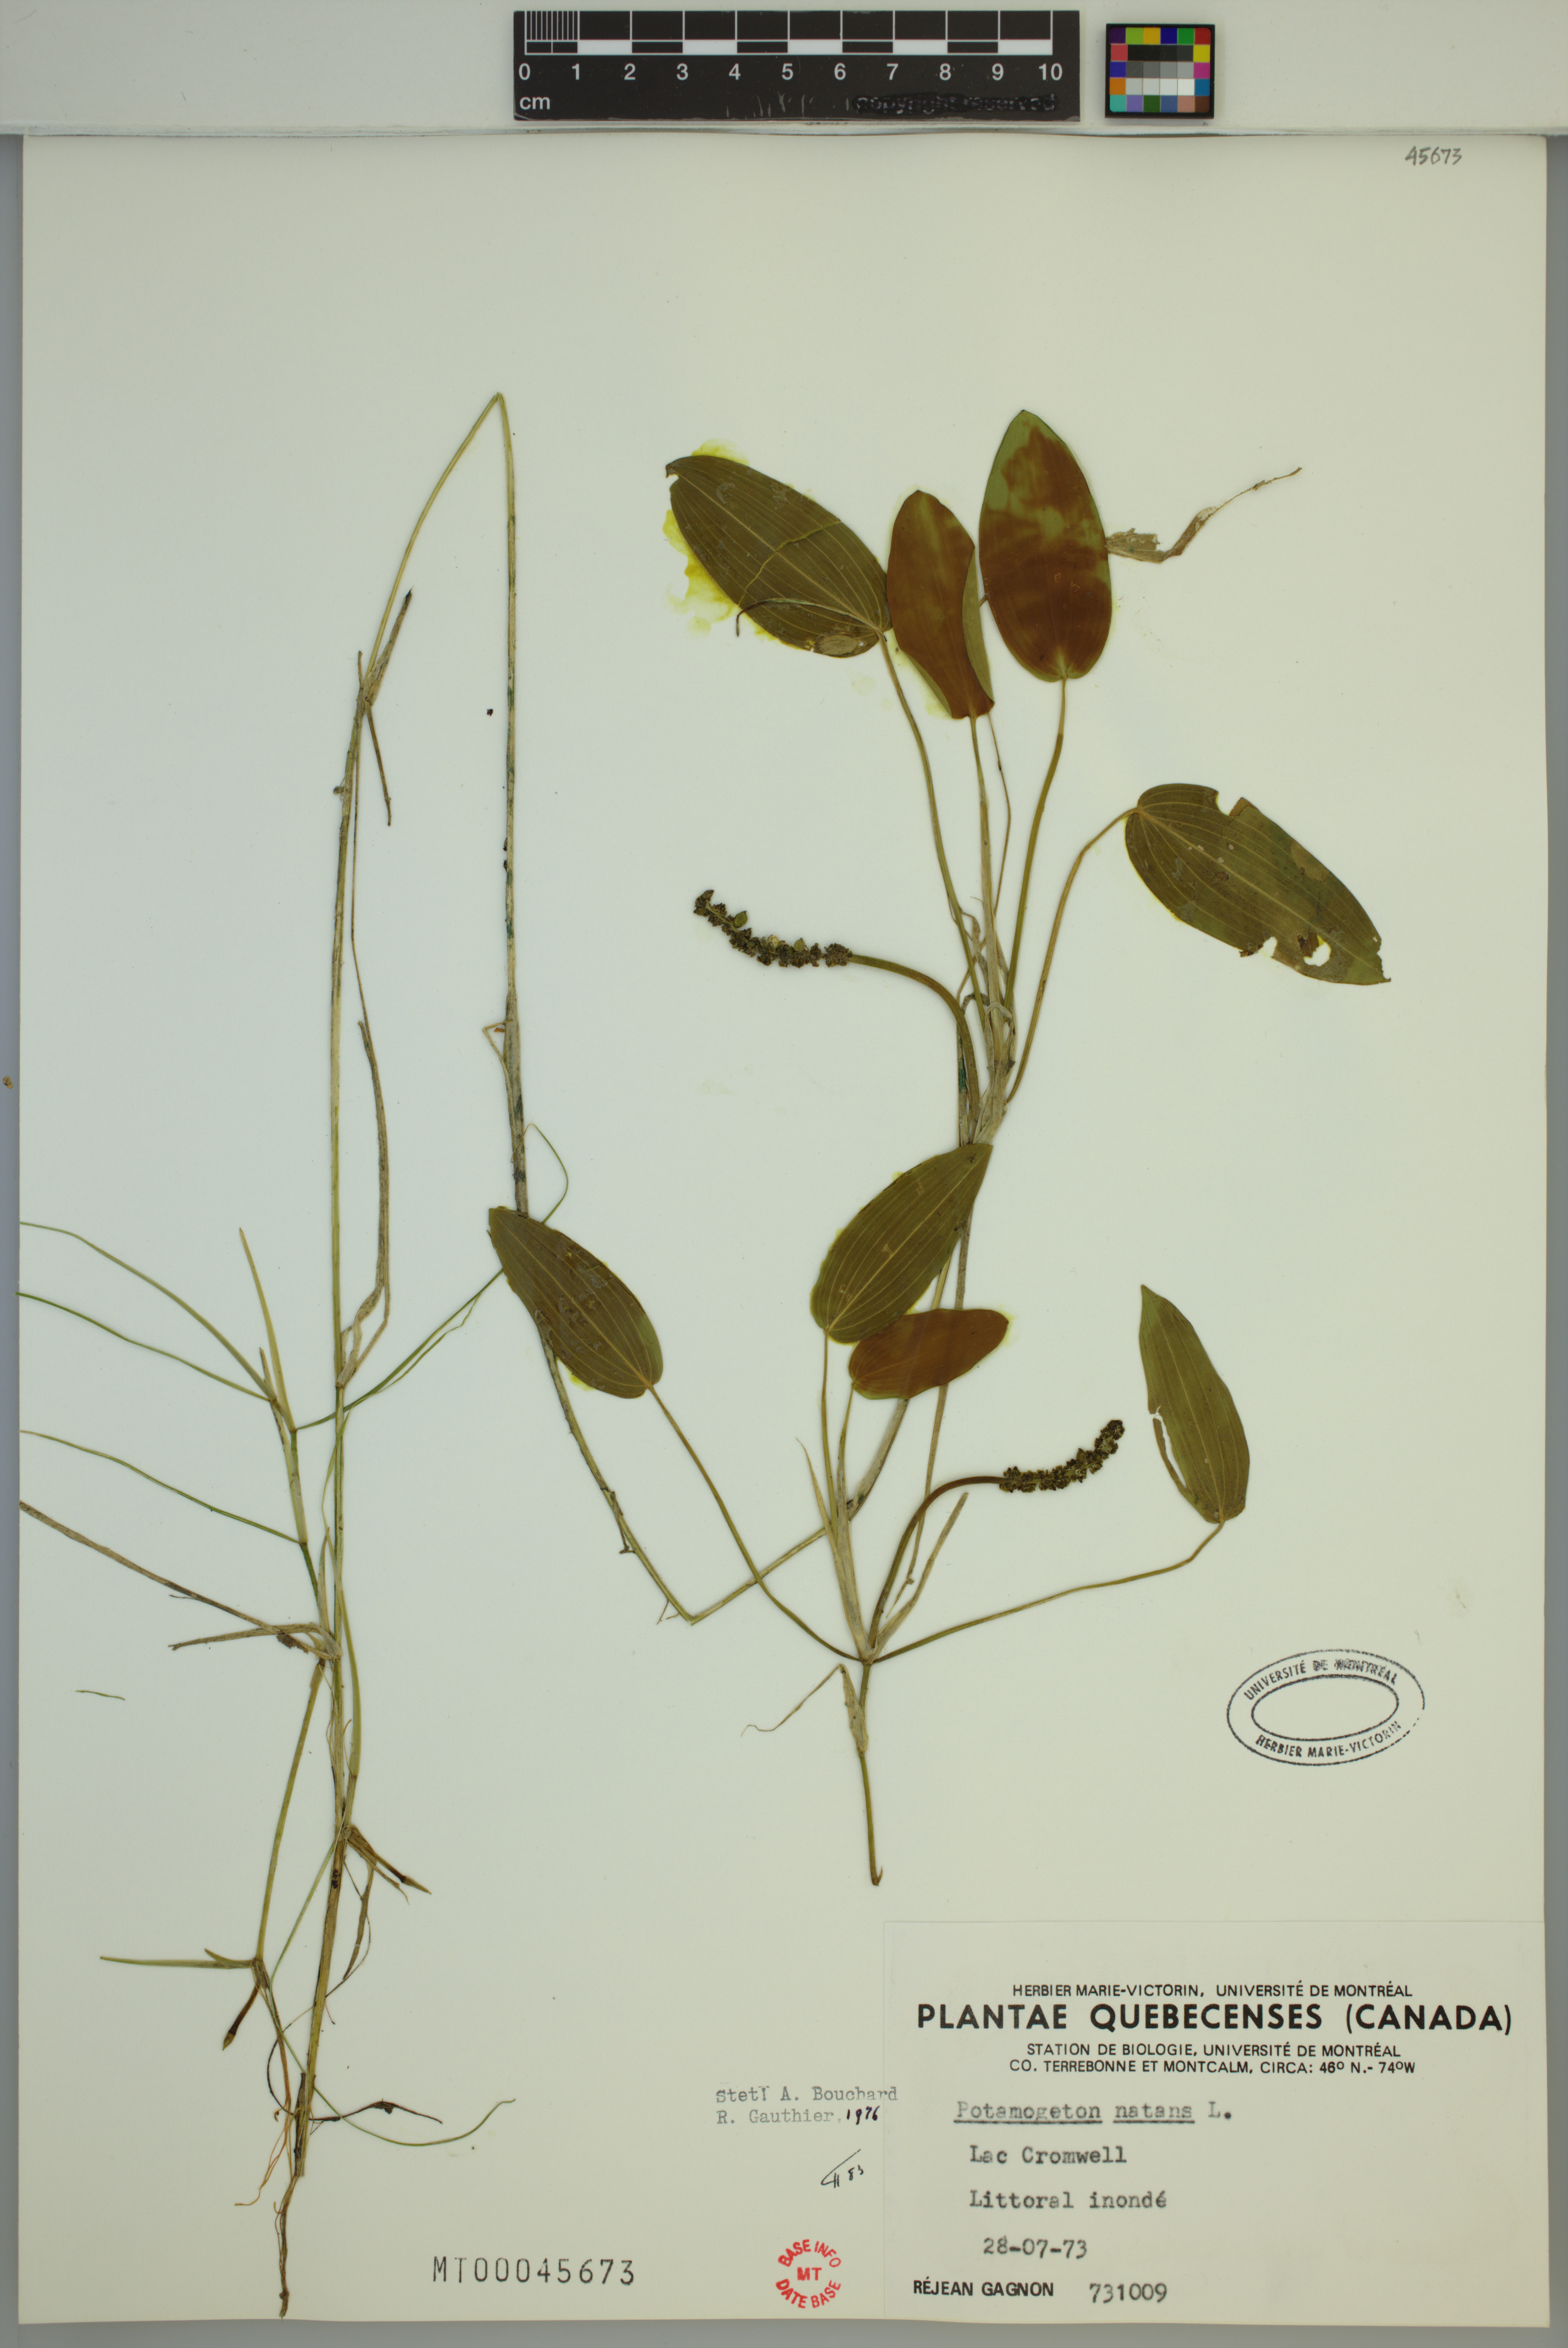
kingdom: Plantae
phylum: Tracheophyta
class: Liliopsida
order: Alismatales
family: Potamogetonaceae
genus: Potamogeton
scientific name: Potamogeton natans
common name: Broad-leaved pondweed
